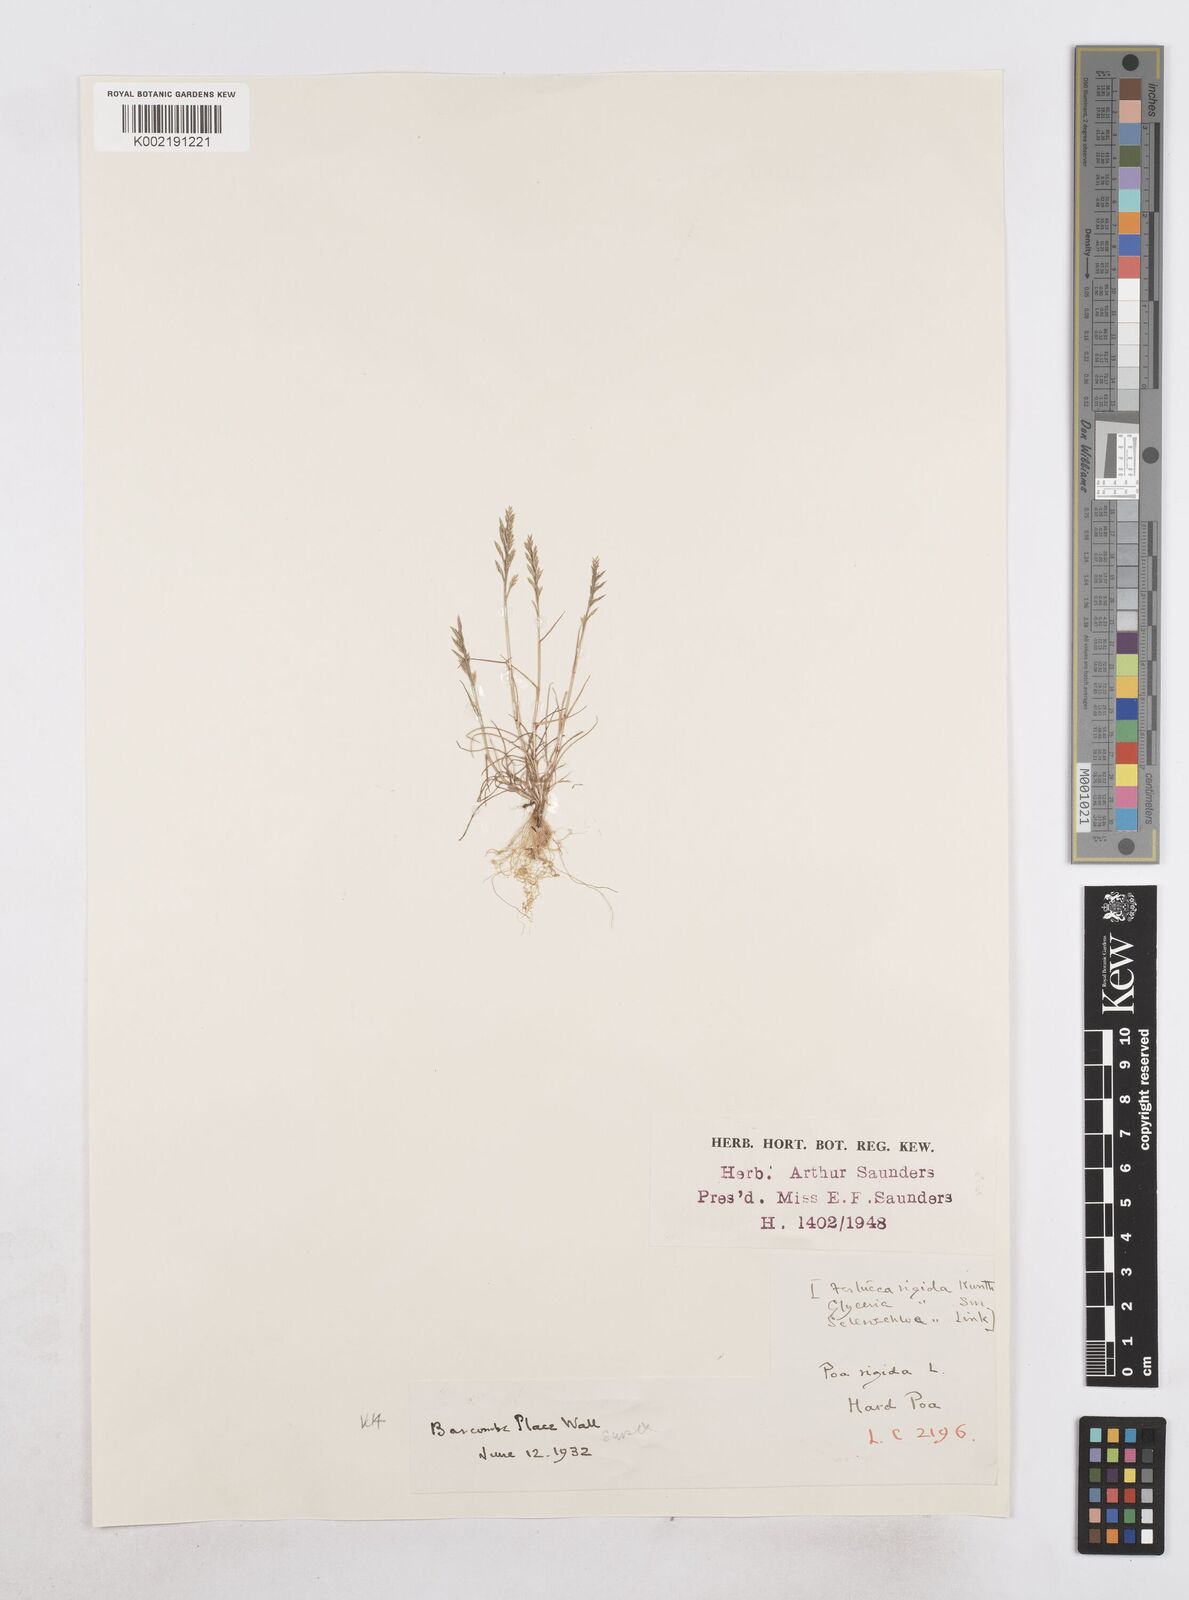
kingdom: Plantae
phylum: Tracheophyta
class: Liliopsida
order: Poales
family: Poaceae
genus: Catapodium
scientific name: Catapodium rigidum
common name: Fern-grass
